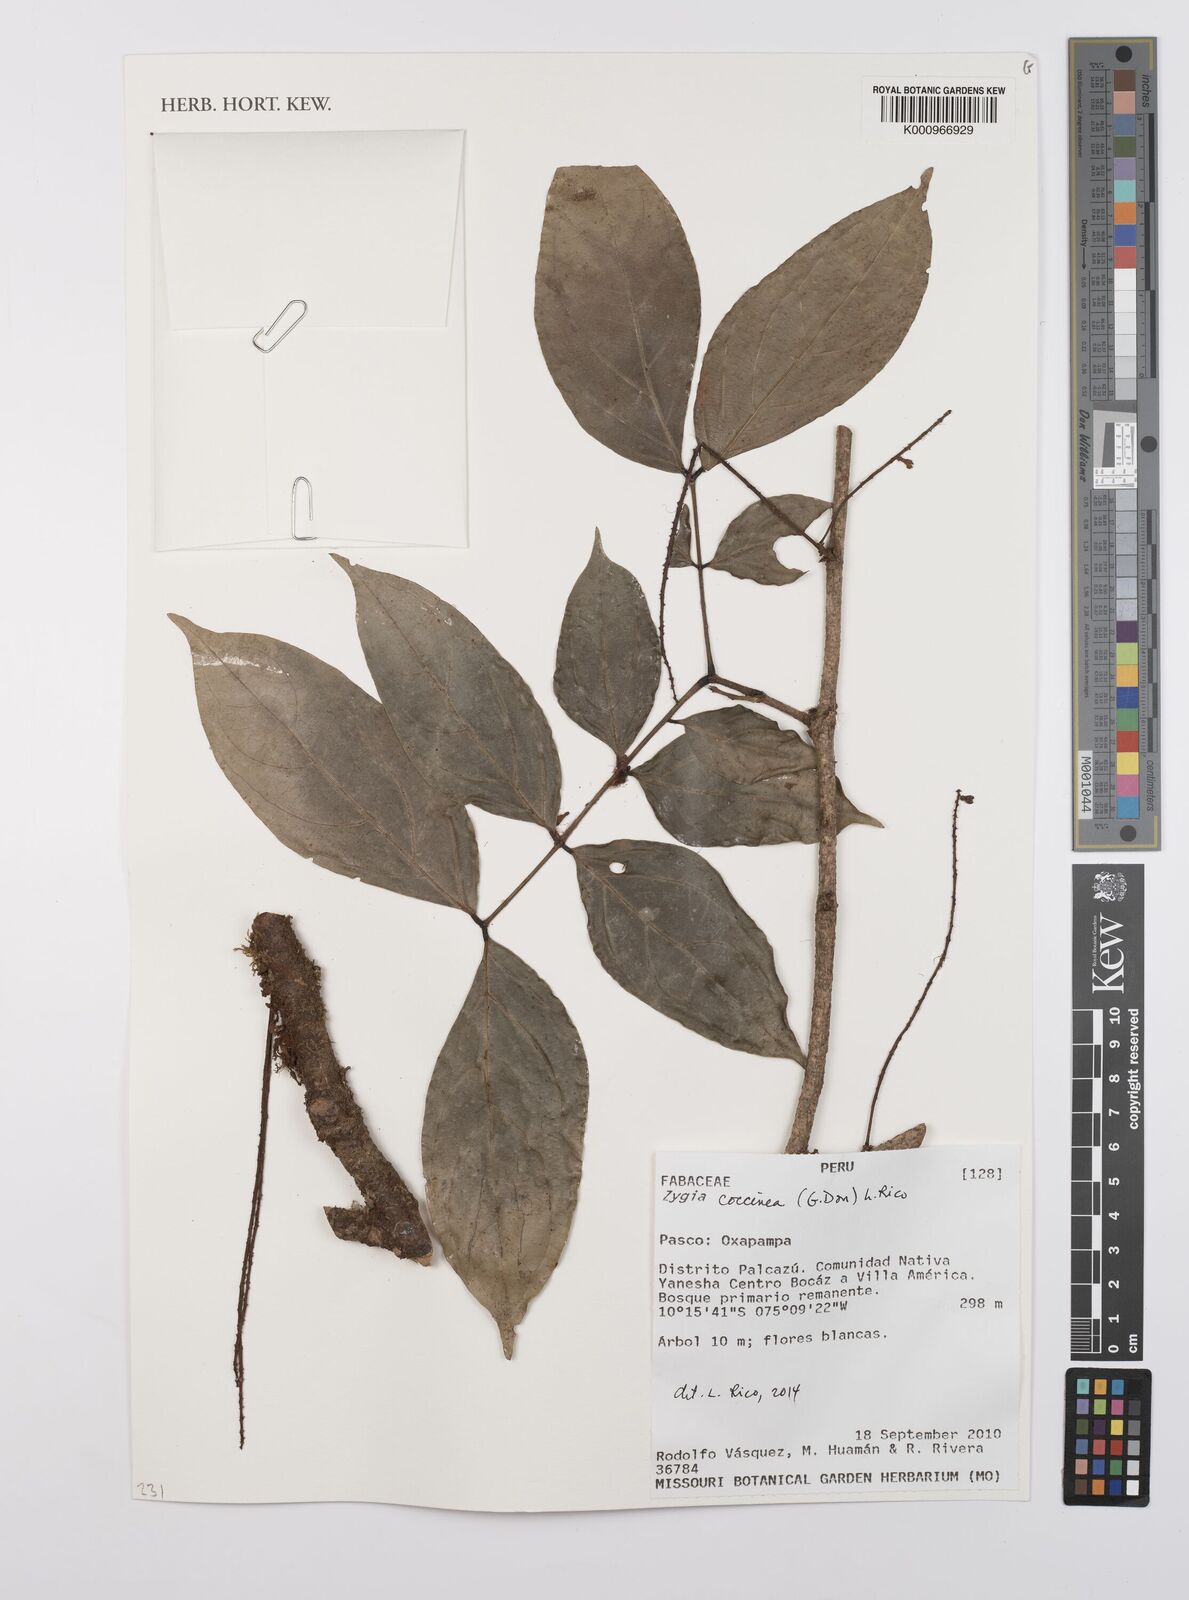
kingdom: Plantae
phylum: Tracheophyta
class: Magnoliopsida
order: Fabales
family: Fabaceae
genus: Zygia
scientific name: Zygia coccinea
